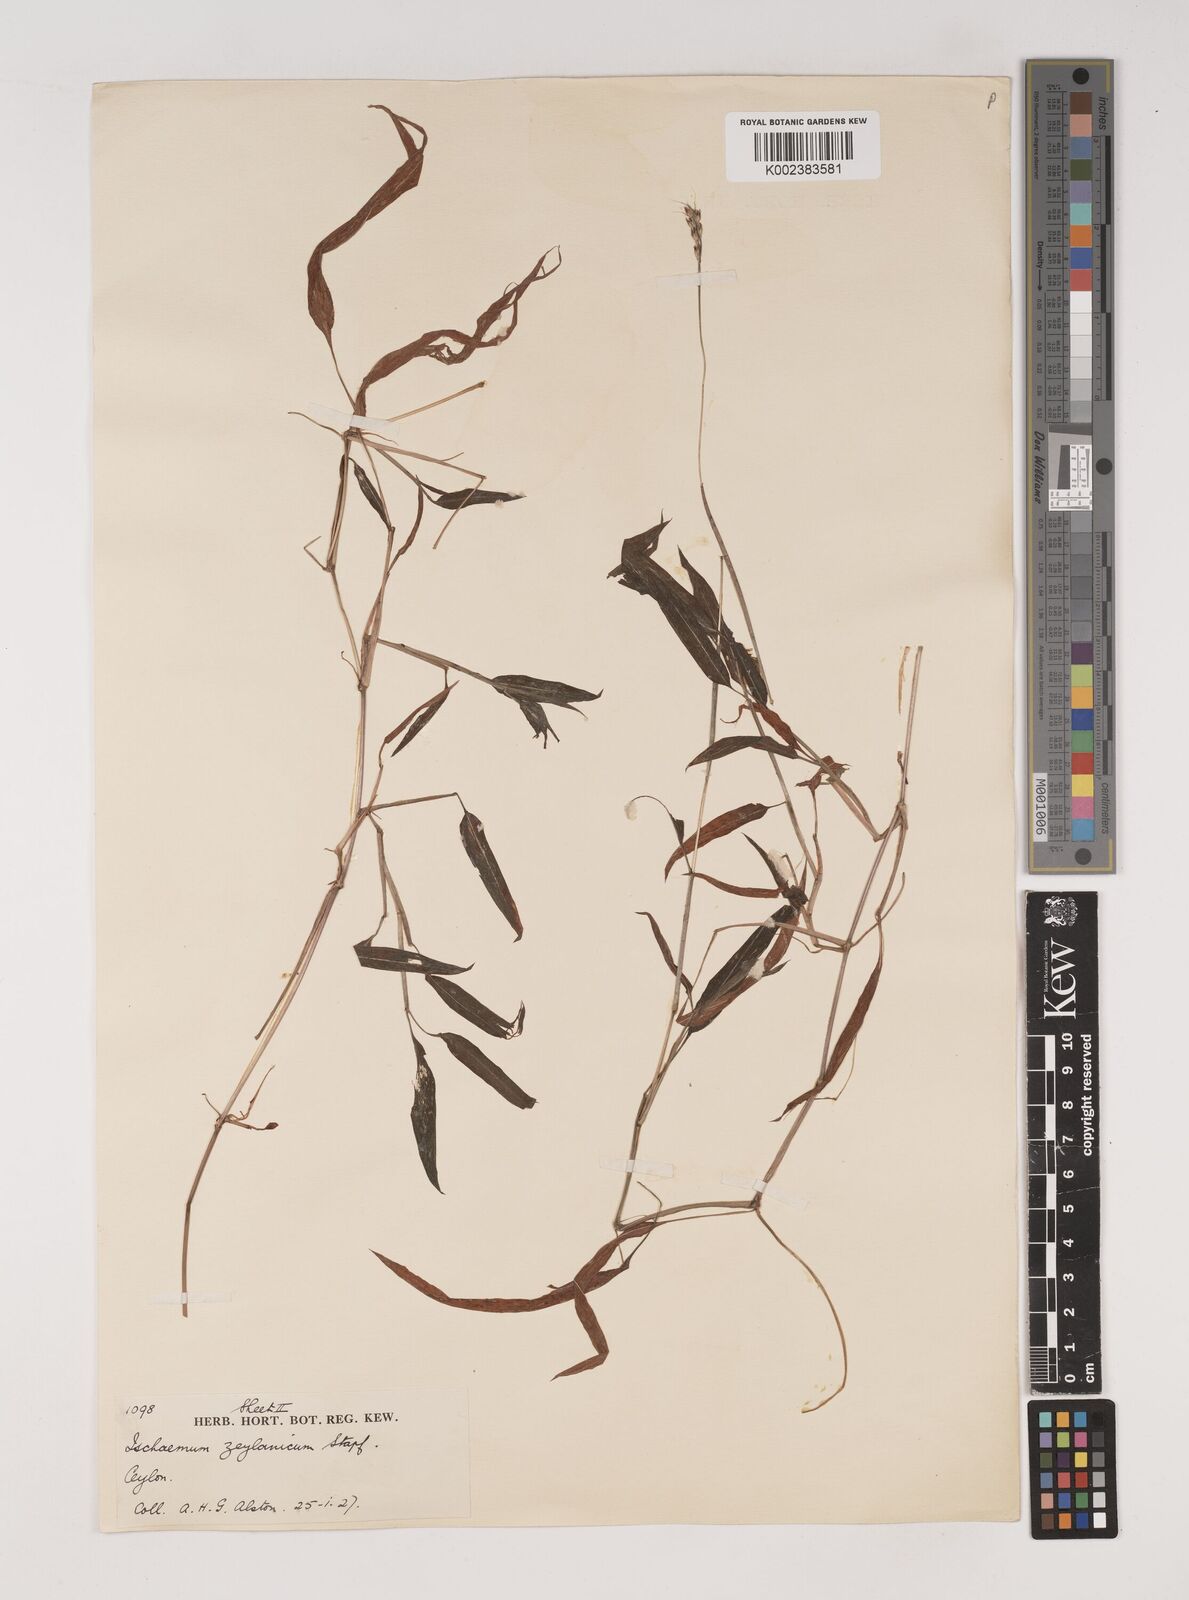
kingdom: Plantae
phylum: Tracheophyta
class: Liliopsida
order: Poales
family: Poaceae
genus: Ischaemum
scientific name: Ischaemum zeylanicola
